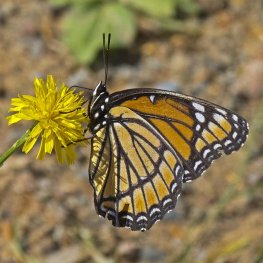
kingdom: Animalia
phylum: Arthropoda
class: Insecta
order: Lepidoptera
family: Nymphalidae
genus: Limenitis
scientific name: Limenitis archippus
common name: Viceroy
